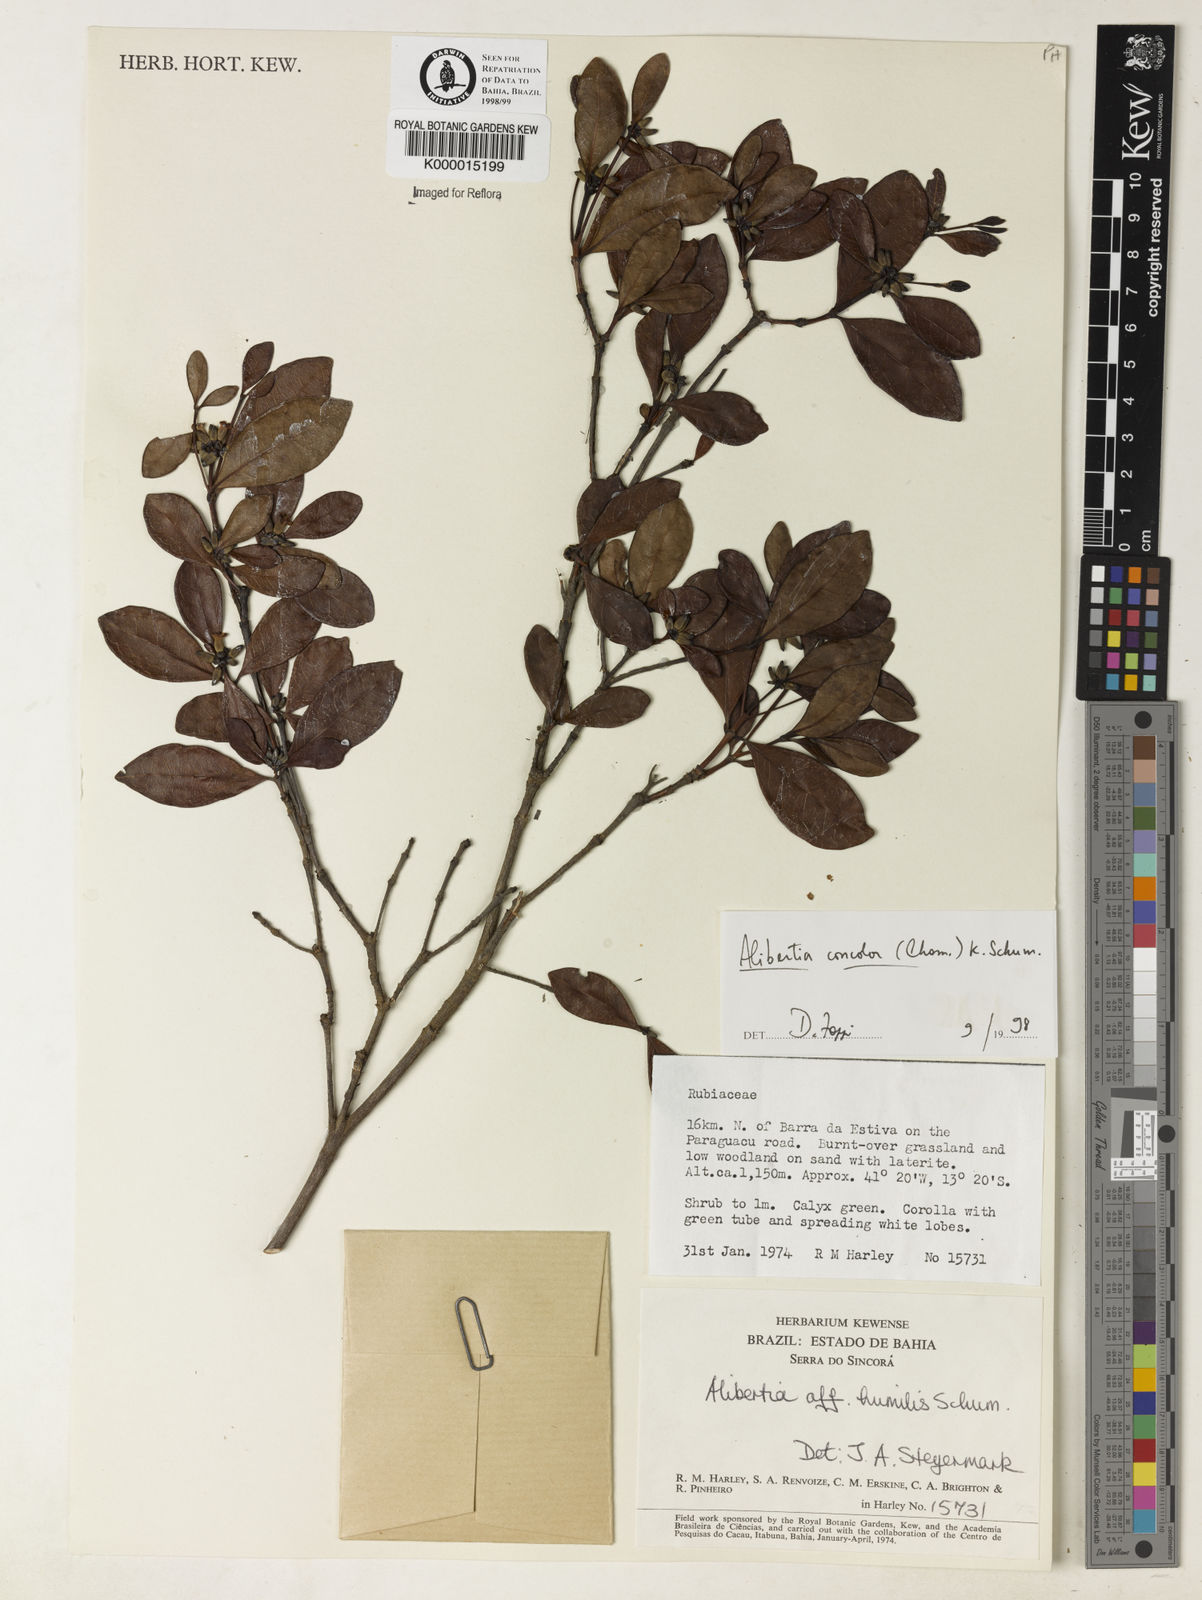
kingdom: Plantae
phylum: Tracheophyta
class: Magnoliopsida
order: Gentianales
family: Rubiaceae
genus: Cordiera
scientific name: Cordiera concolor
